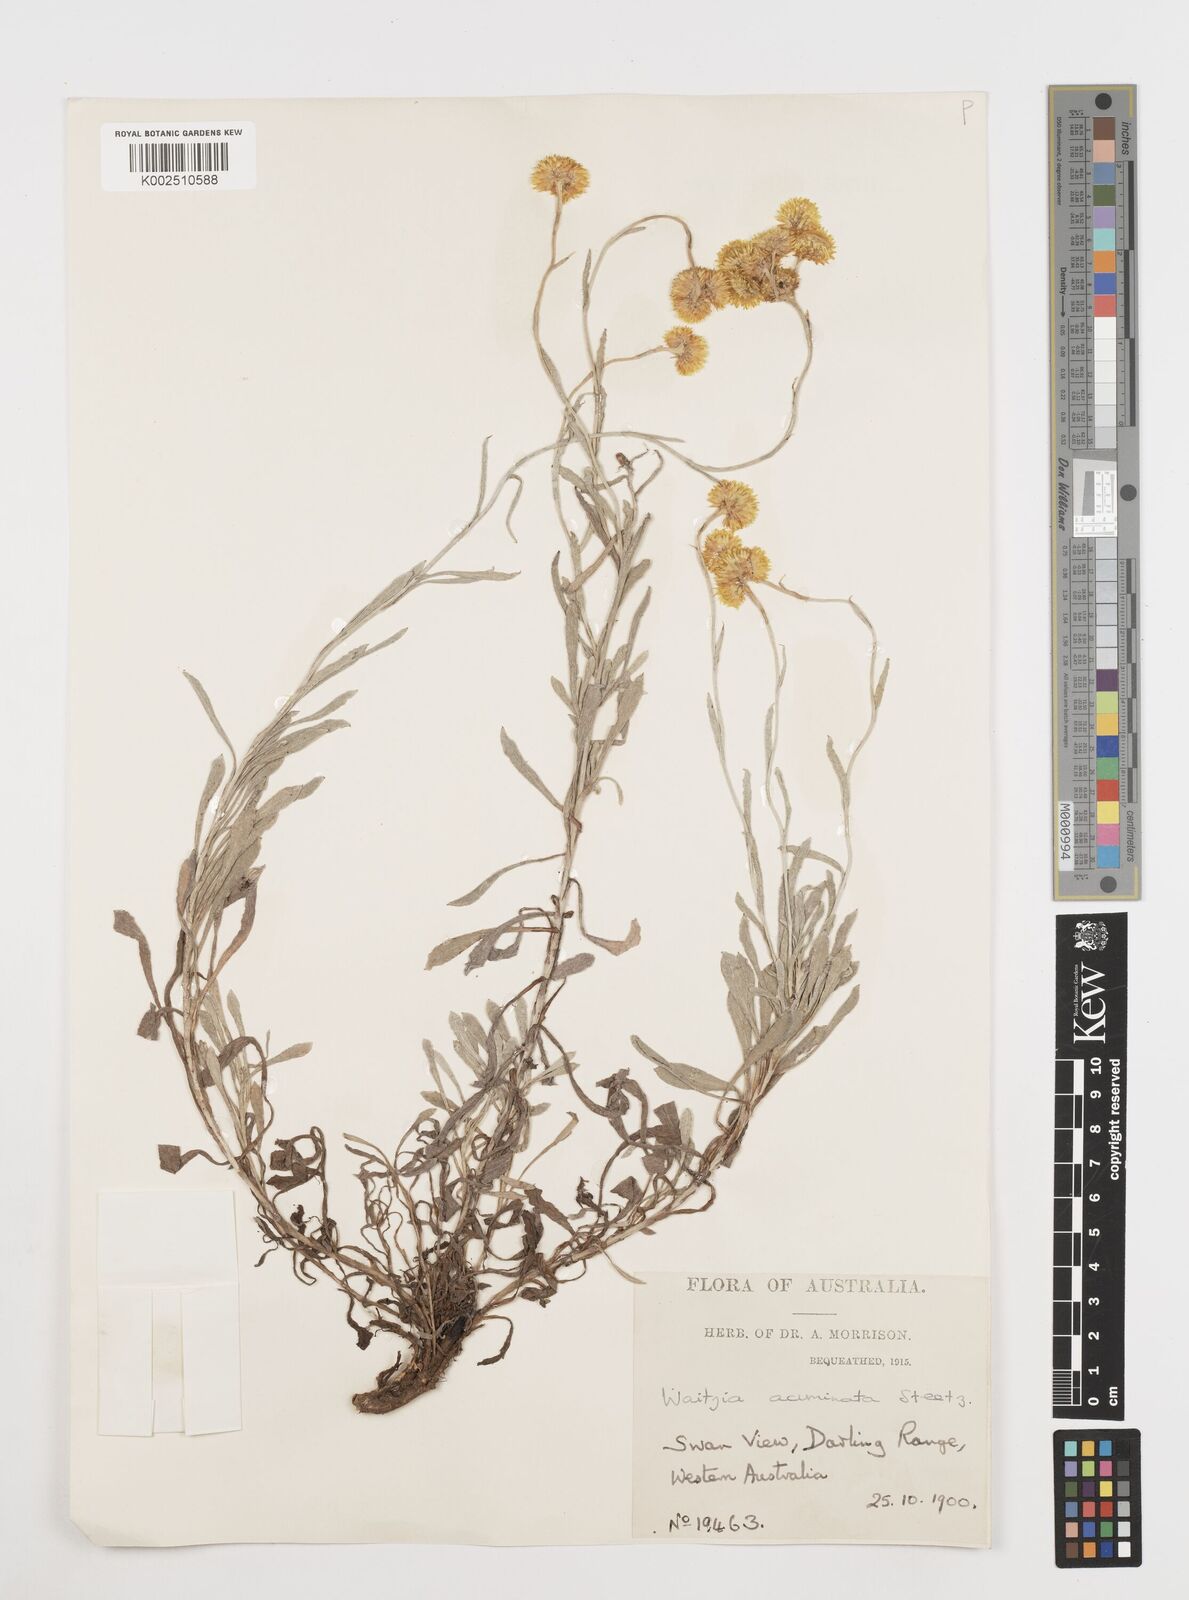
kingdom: Plantae
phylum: Tracheophyta
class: Magnoliopsida
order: Asterales
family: Asteraceae
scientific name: Asteraceae
